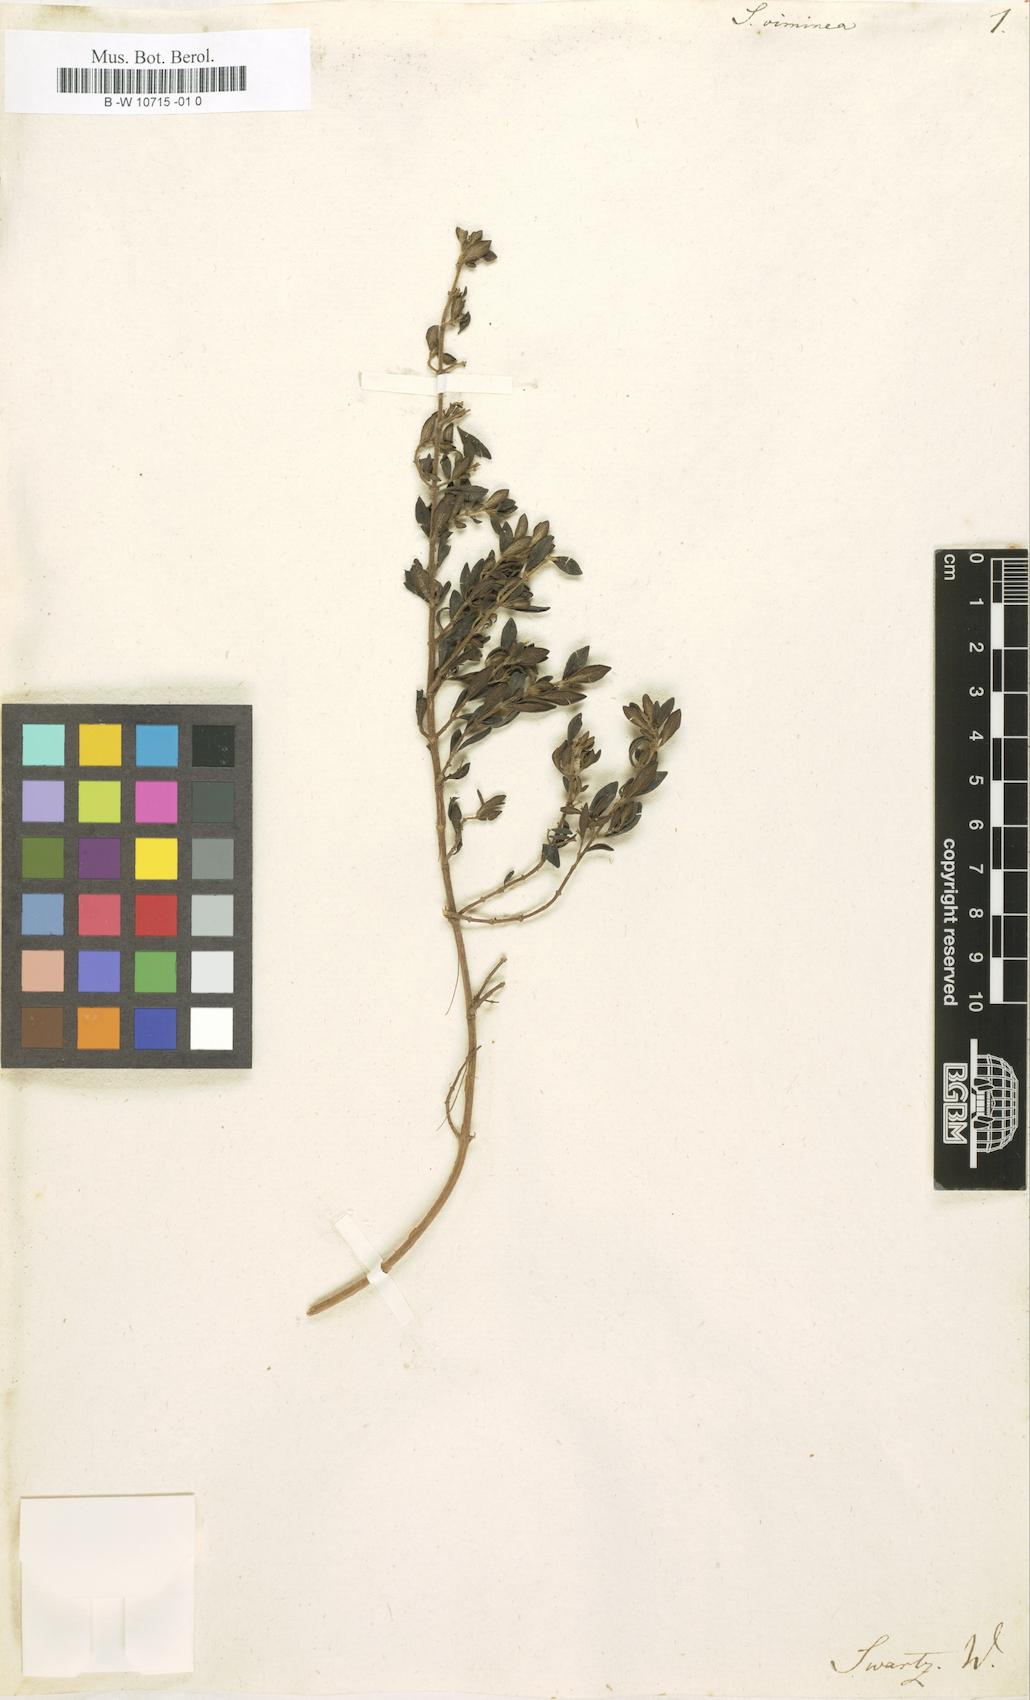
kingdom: Plantae
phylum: Tracheophyta
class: Magnoliopsida
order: Lamiales
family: Lamiaceae
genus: Clinopodium
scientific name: Clinopodium vimineum
